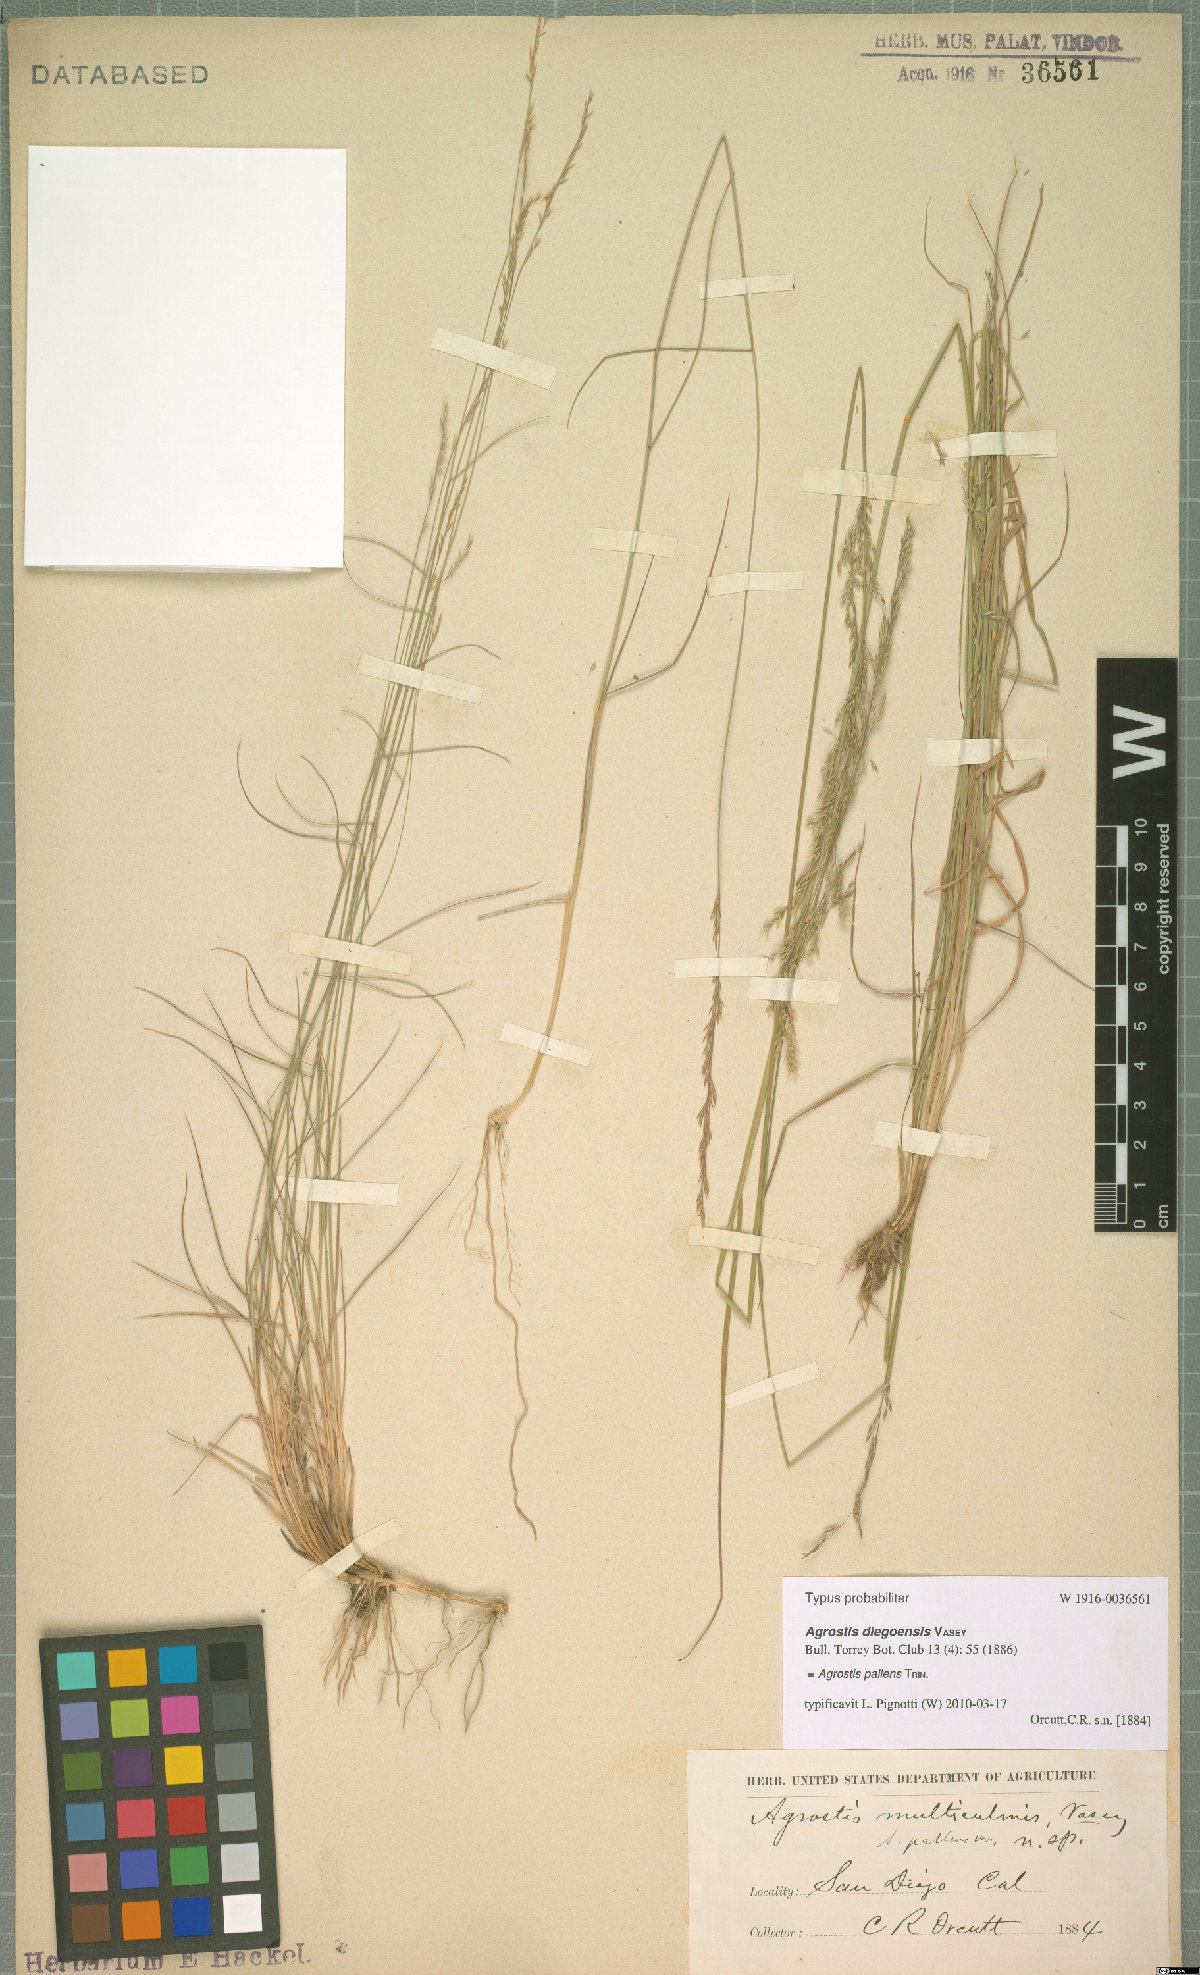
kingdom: Plantae
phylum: Tracheophyta
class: Liliopsida
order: Poales
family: Poaceae
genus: Agrostis
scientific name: Agrostis pallens
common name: Dune bent
